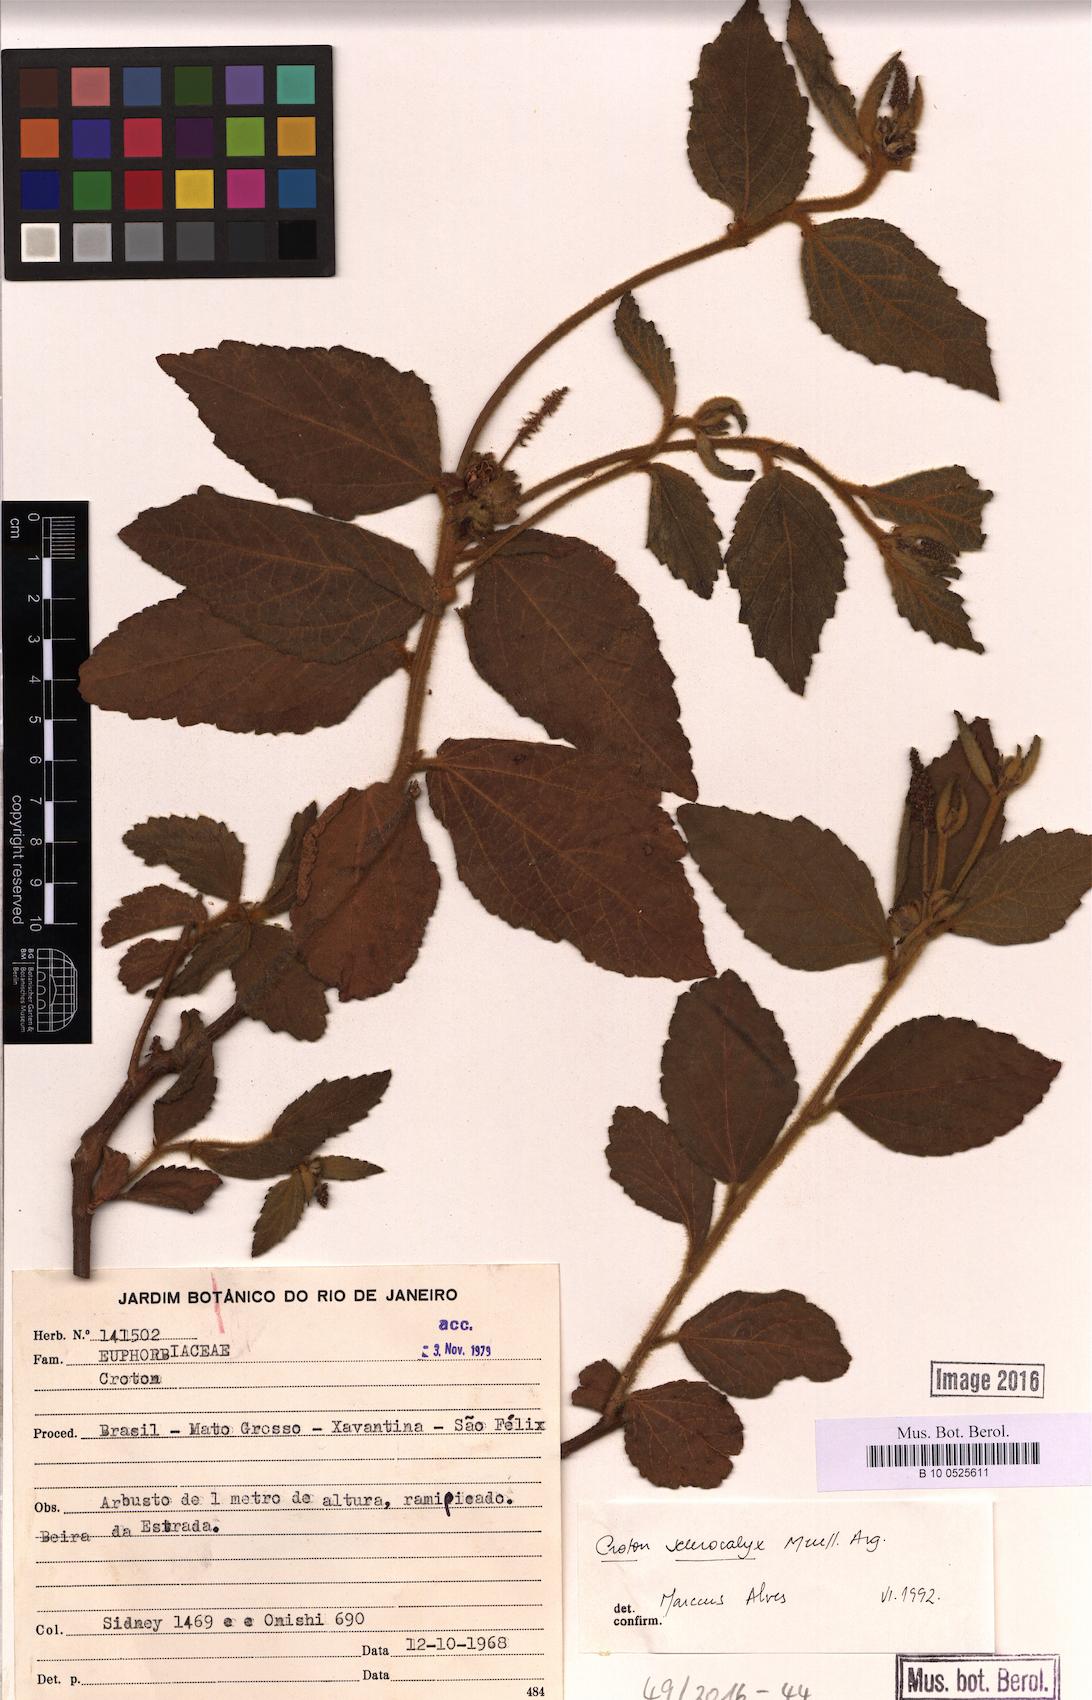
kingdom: Plantae
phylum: Tracheophyta
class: Magnoliopsida
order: Malpighiales
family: Euphorbiaceae
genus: Croton
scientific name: Croton sclerocalyx
